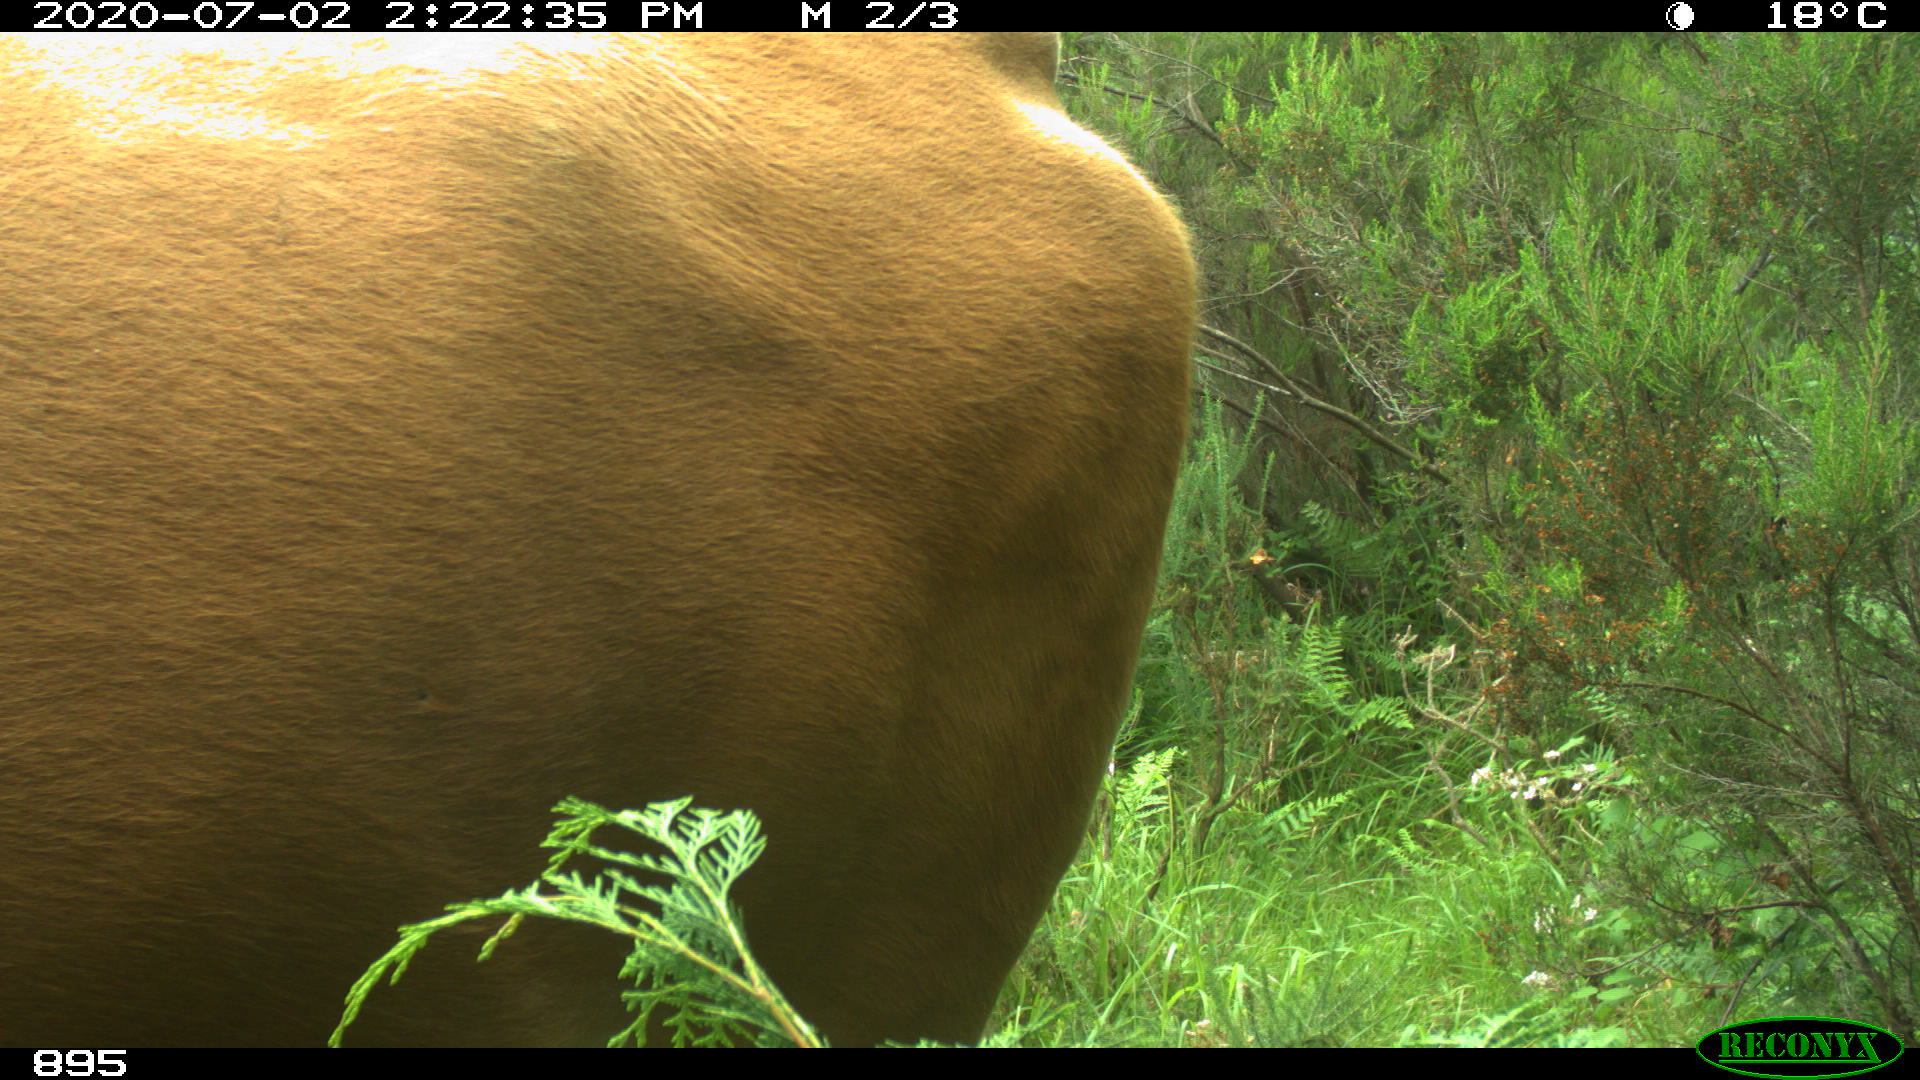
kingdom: Animalia
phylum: Chordata
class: Mammalia
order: Artiodactyla
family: Bovidae
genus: Bos
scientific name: Bos taurus
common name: Domesticated cattle
